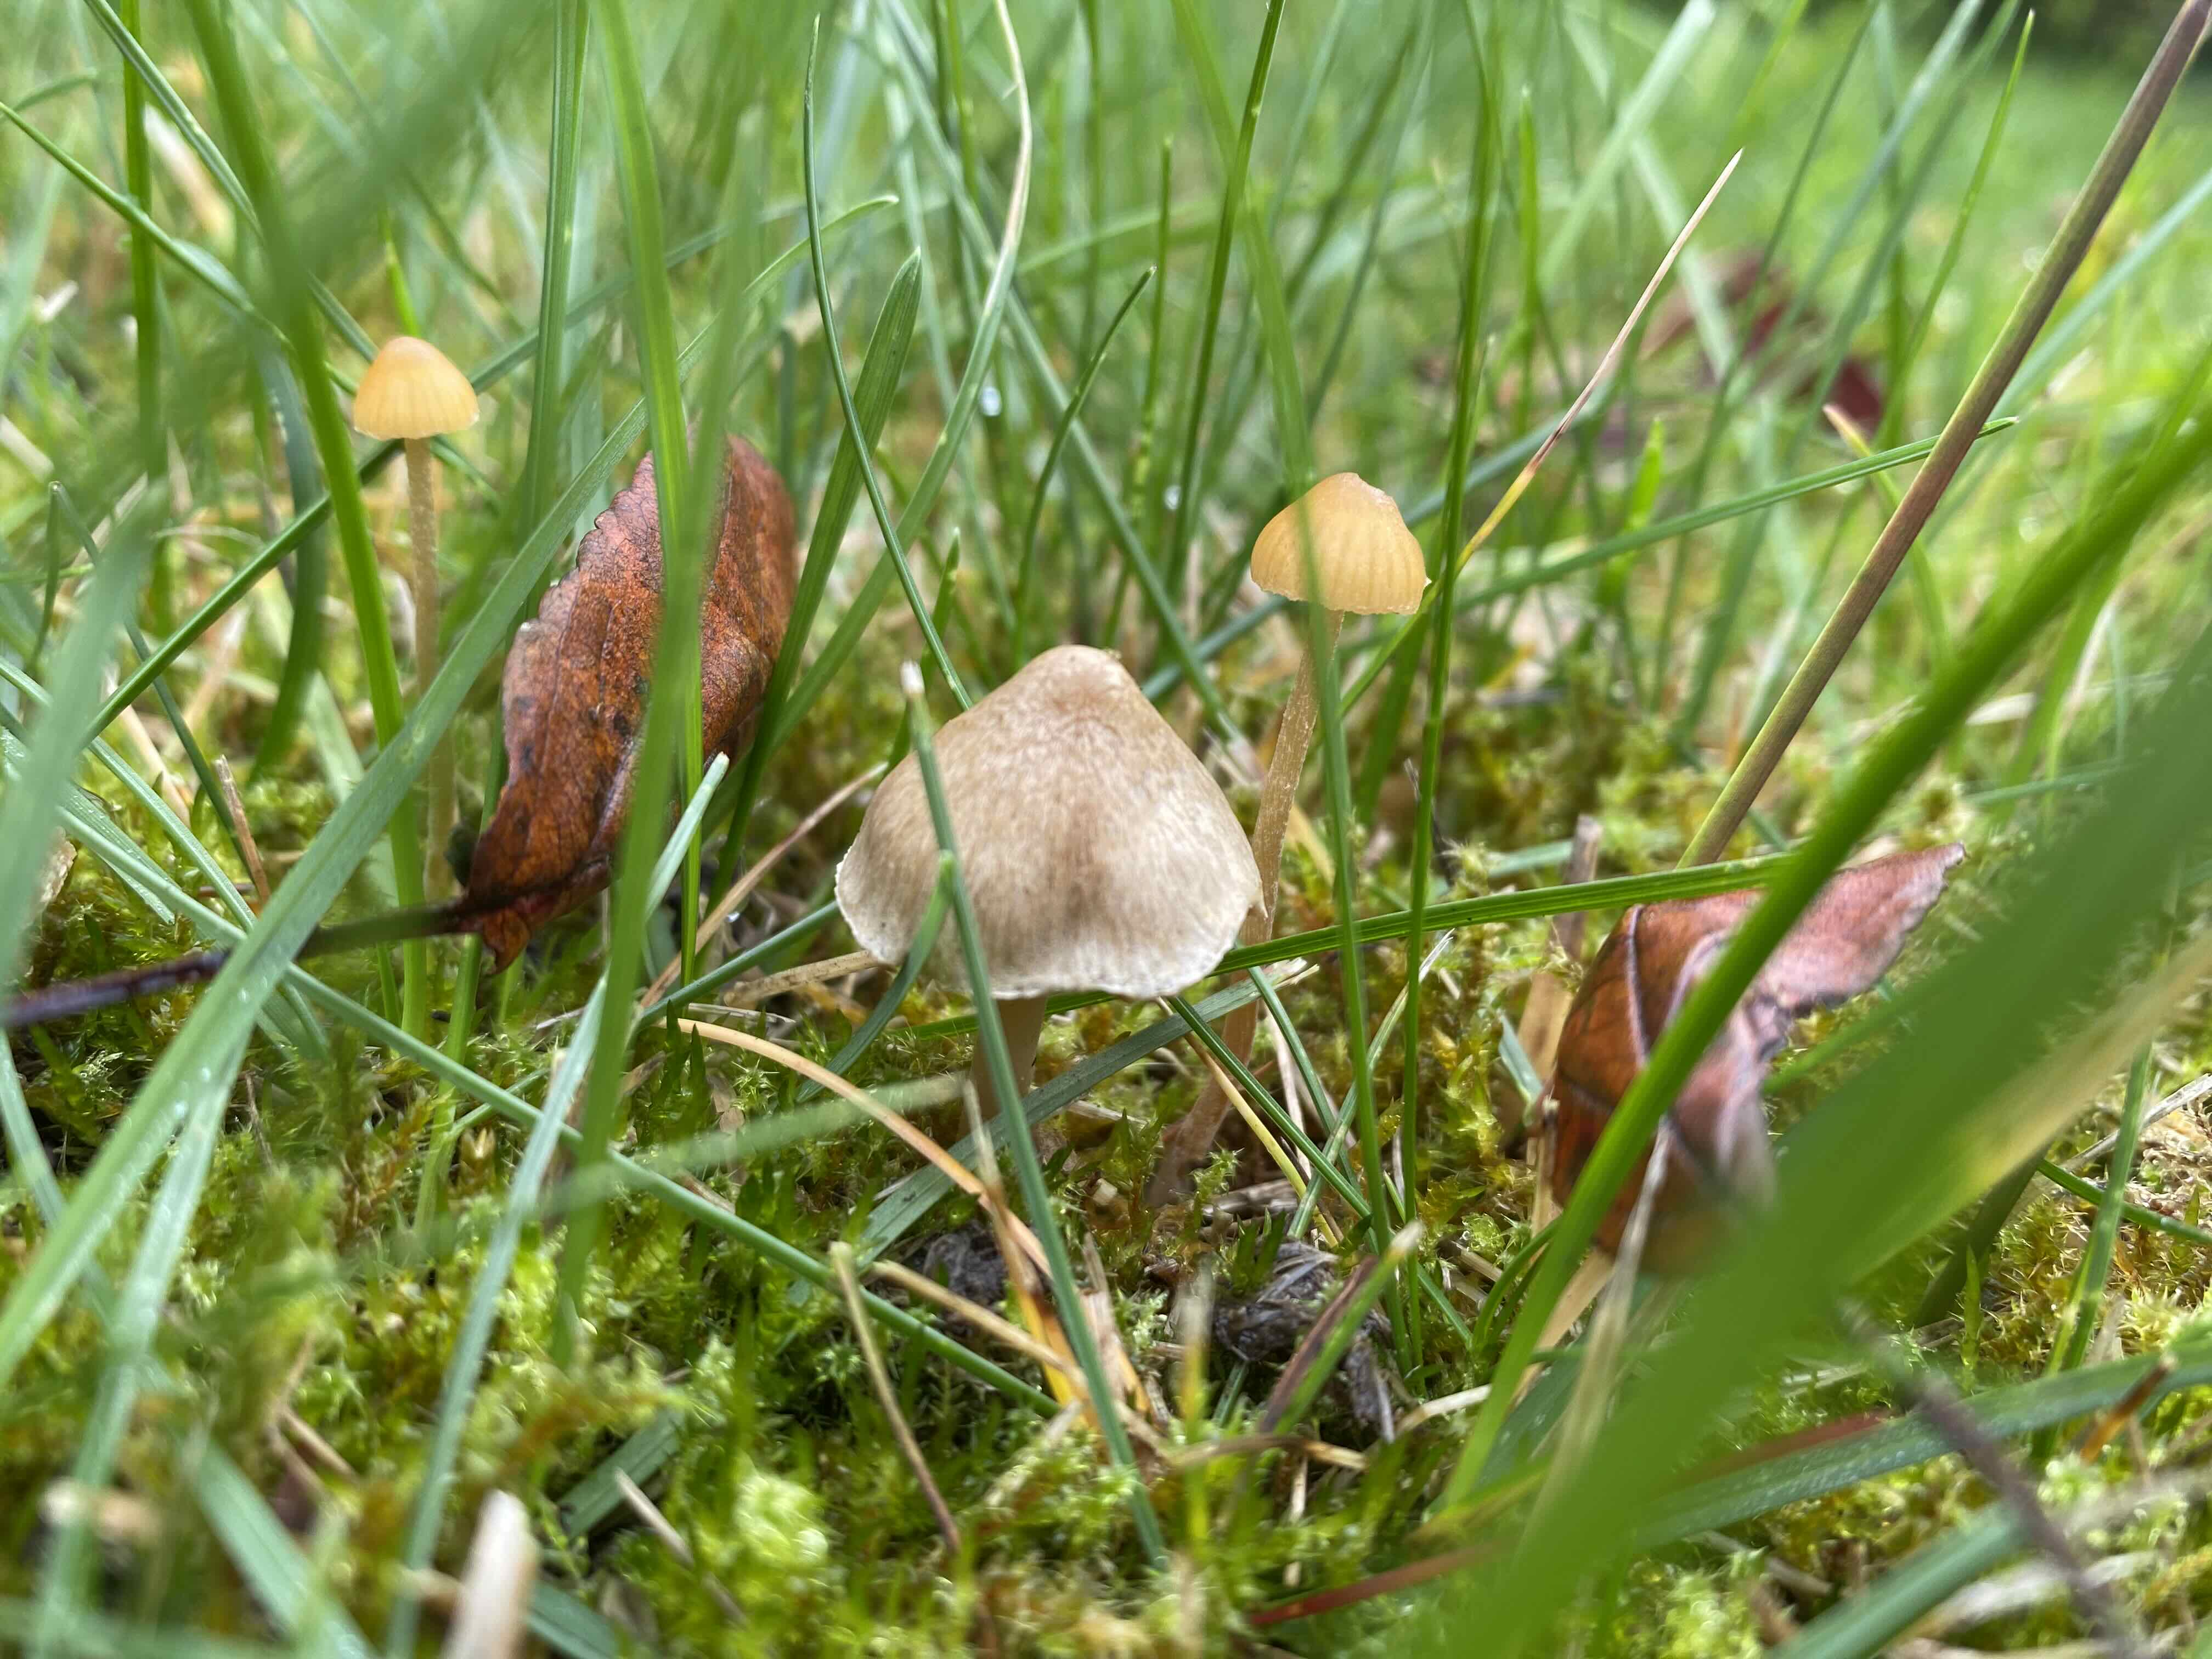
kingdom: Fungi
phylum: Basidiomycota
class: Agaricomycetes
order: Agaricales
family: Mycenaceae
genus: Mycena
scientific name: Mycena
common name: huesvamp
